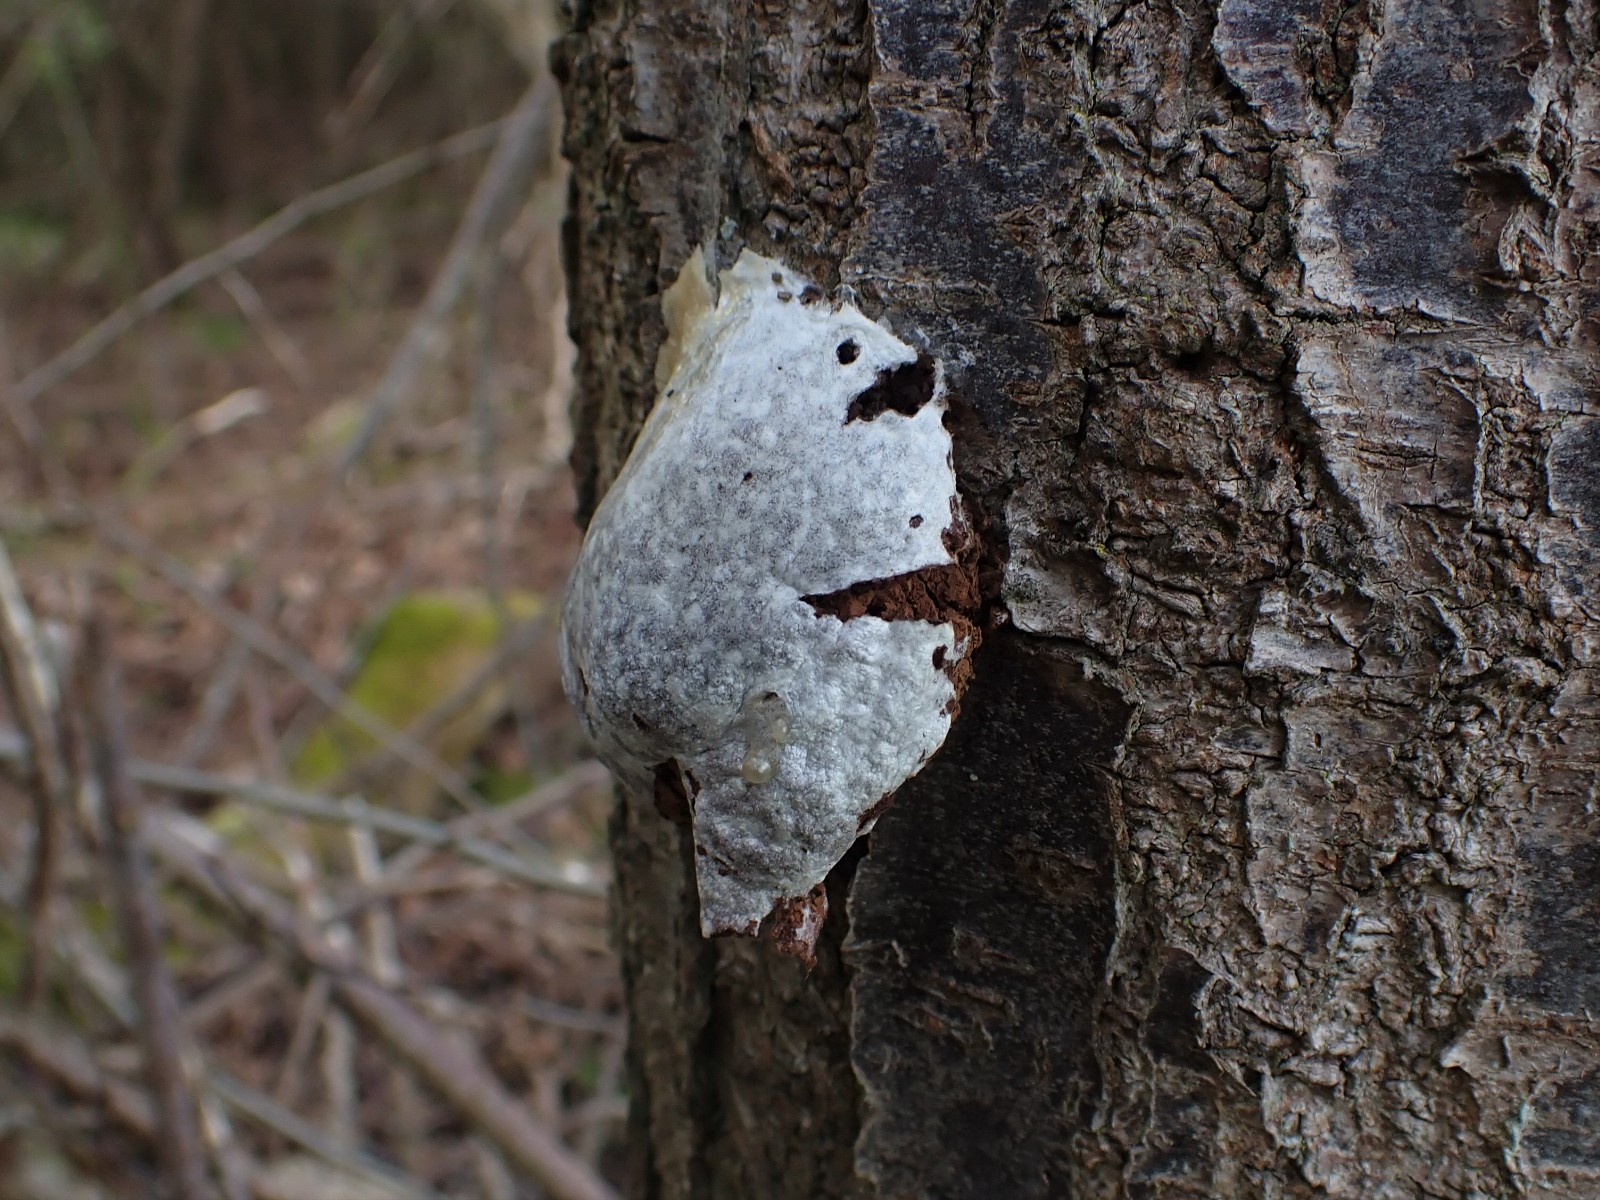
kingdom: Protozoa
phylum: Mycetozoa
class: Myxomycetes
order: Cribrariales
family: Tubiferaceae
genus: Reticularia
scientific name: Reticularia lycoperdon
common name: skinnende støvpude
